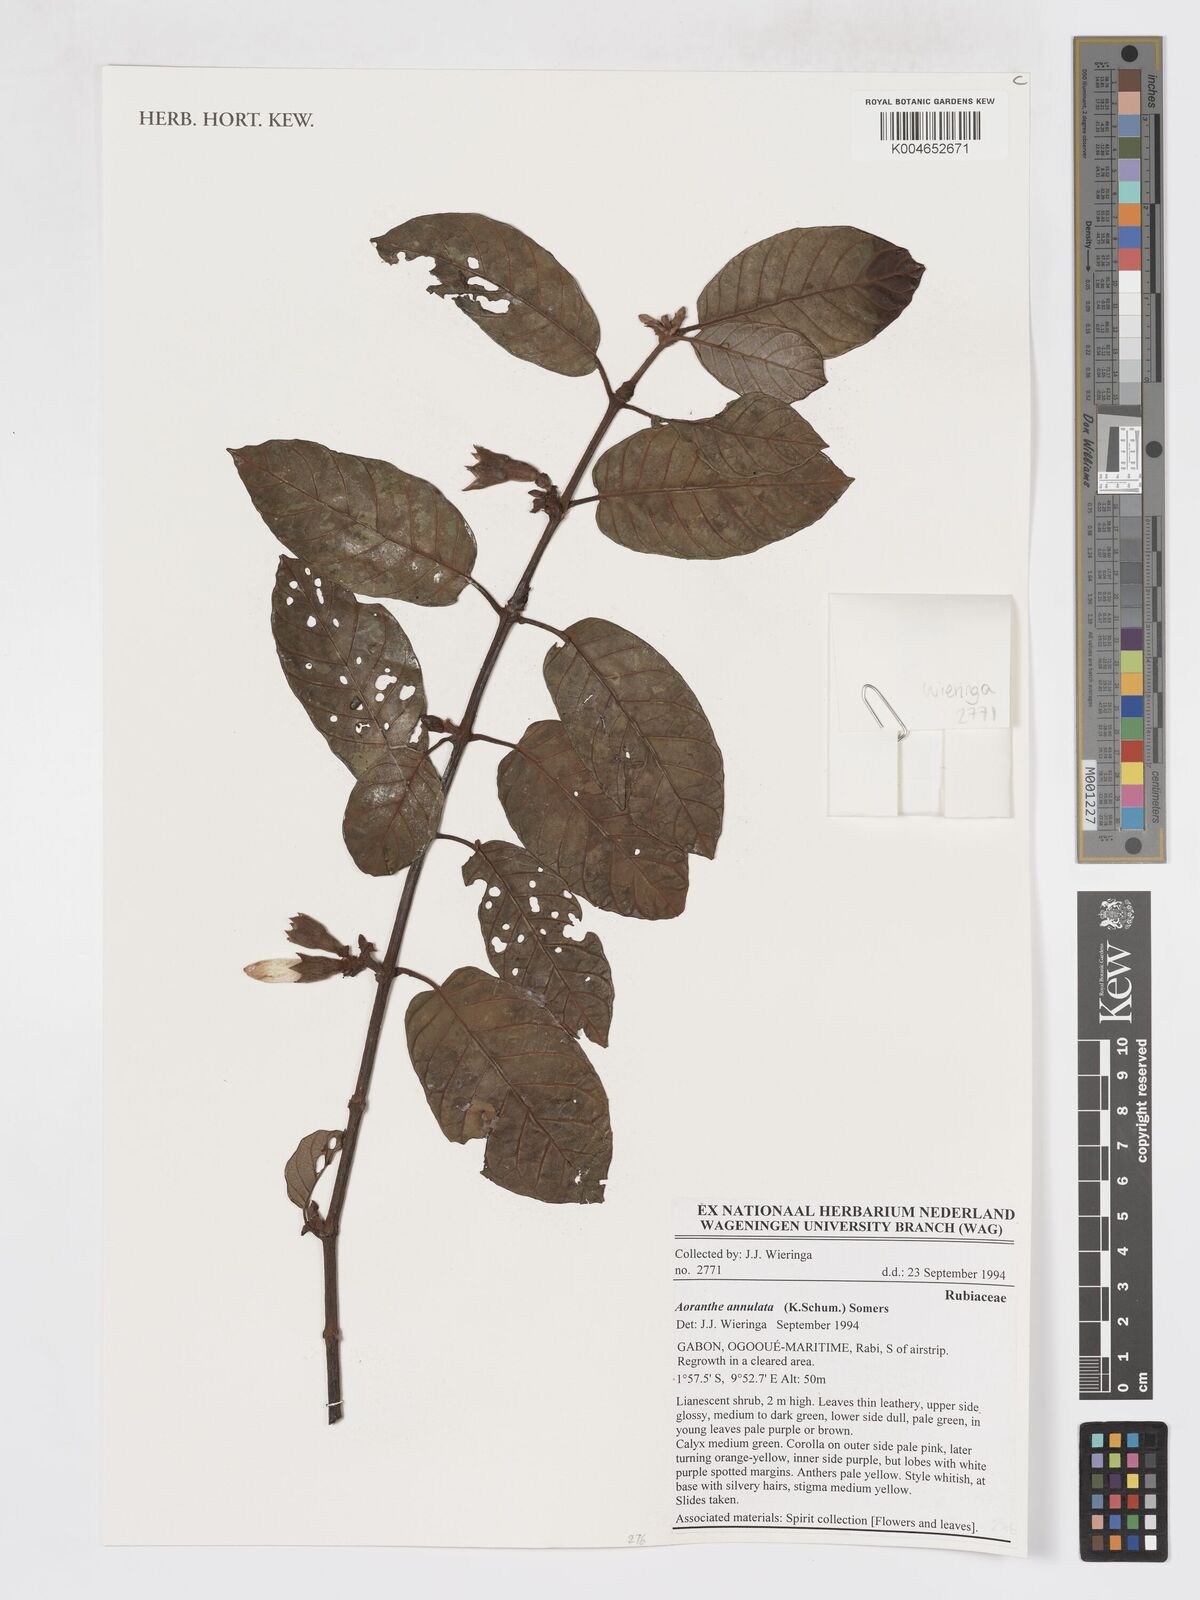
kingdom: Plantae
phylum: Tracheophyta
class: Magnoliopsida
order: Gentianales
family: Rubiaceae
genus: Aoranthe
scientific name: Aoranthe annulata
